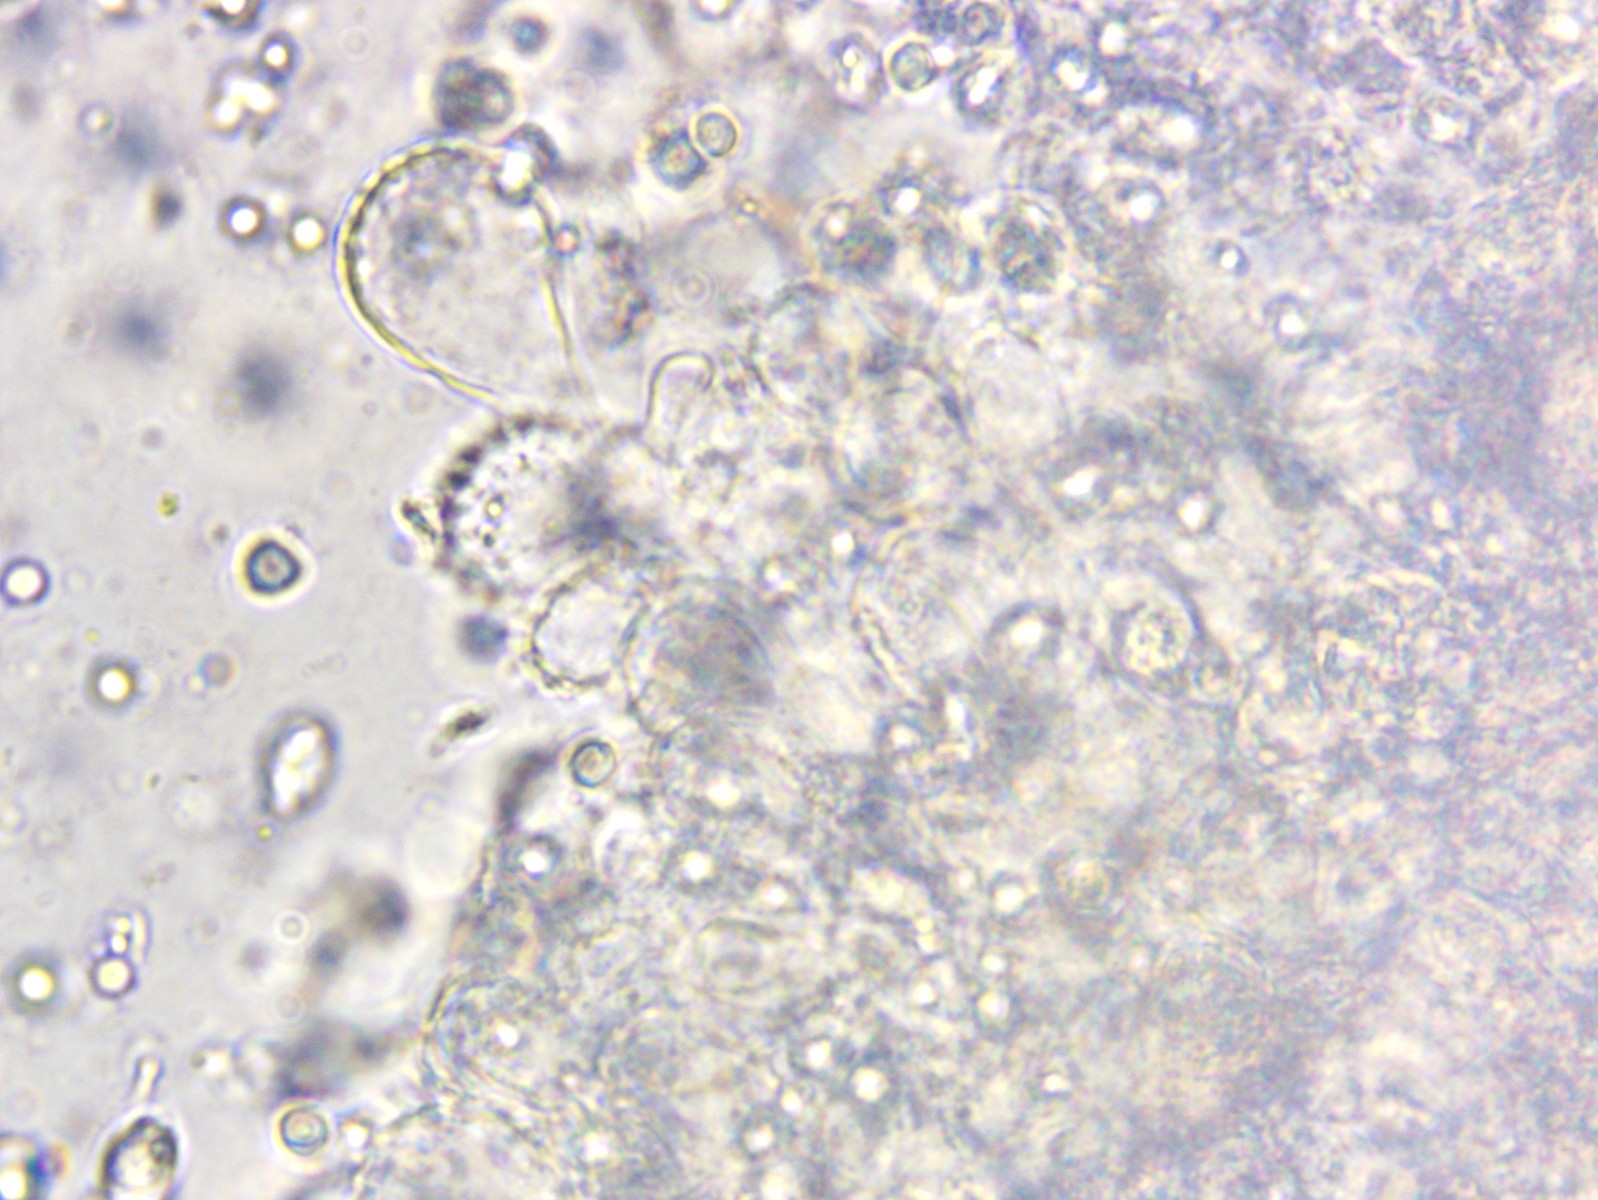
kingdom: Fungi
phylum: Basidiomycota
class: Agaricomycetes
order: Agaricales
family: Mycenaceae
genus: Mycena
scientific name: Mycena filopes
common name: jod-huesvamp
